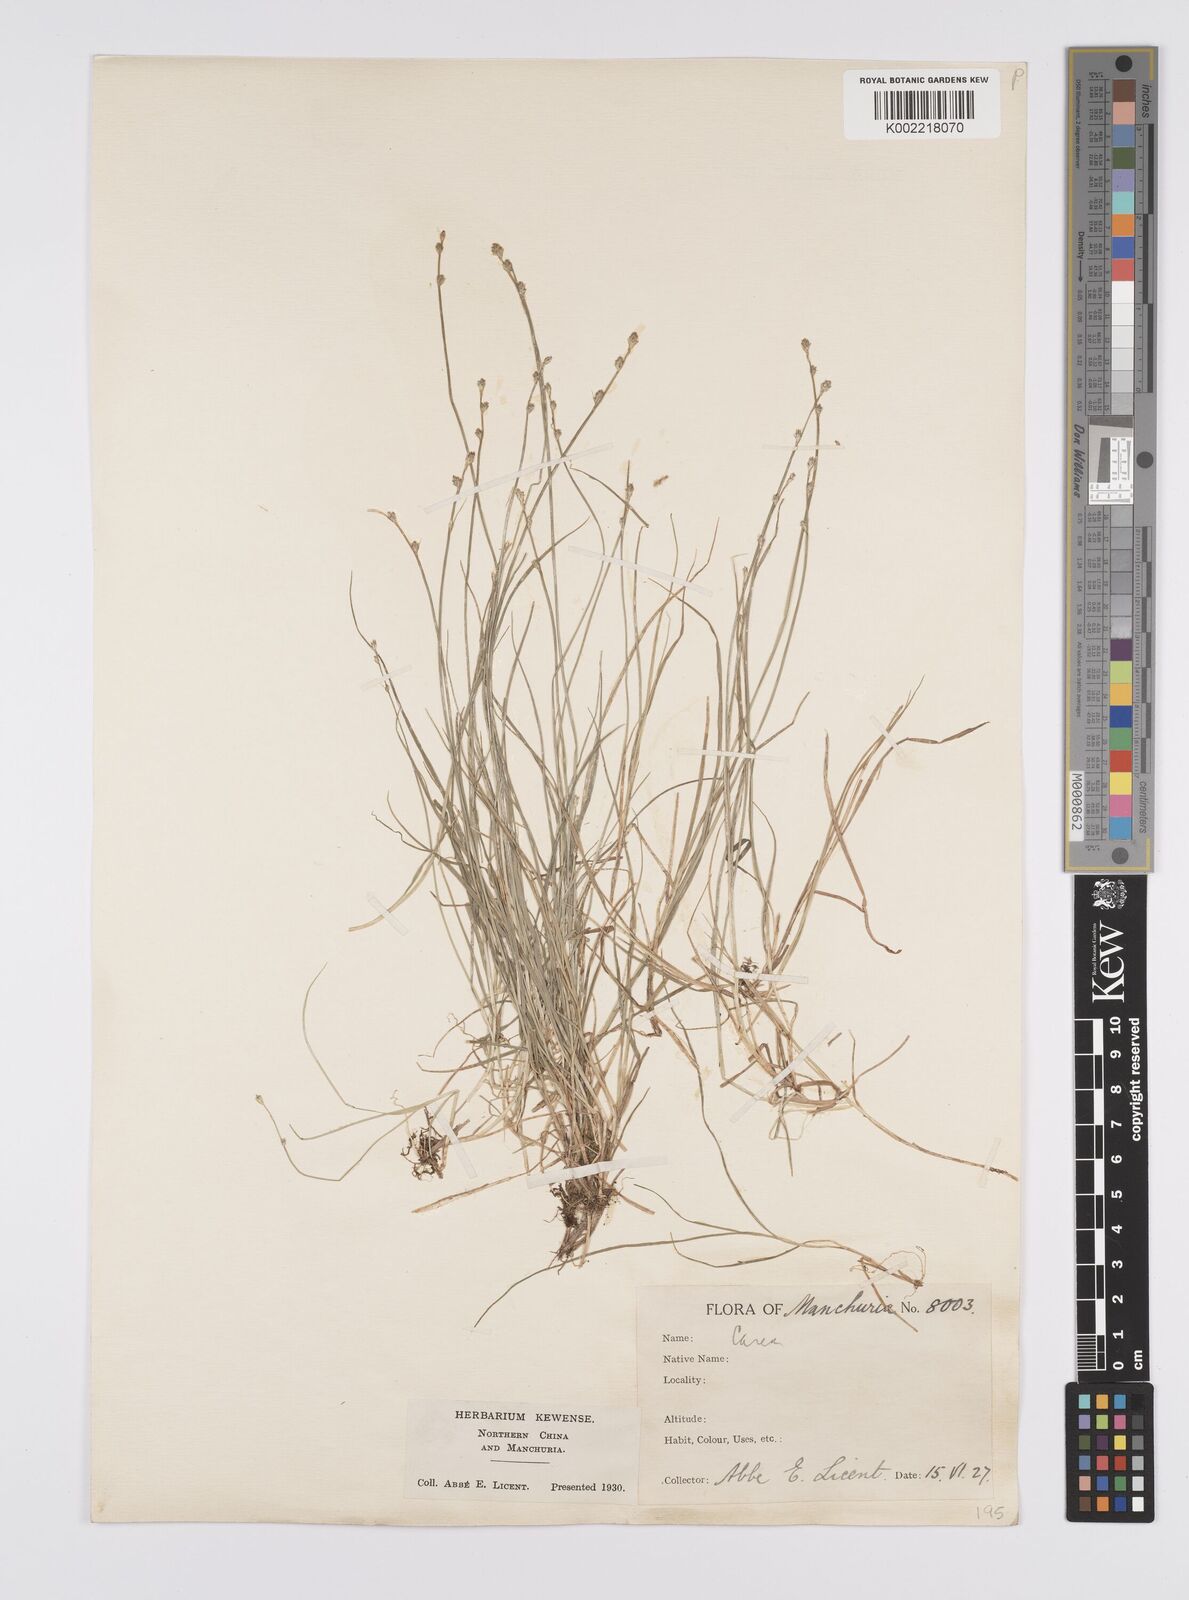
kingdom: Plantae
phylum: Tracheophyta
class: Liliopsida
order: Poales
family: Cyperaceae
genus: Carex
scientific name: Carex remota
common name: Remote sedge
